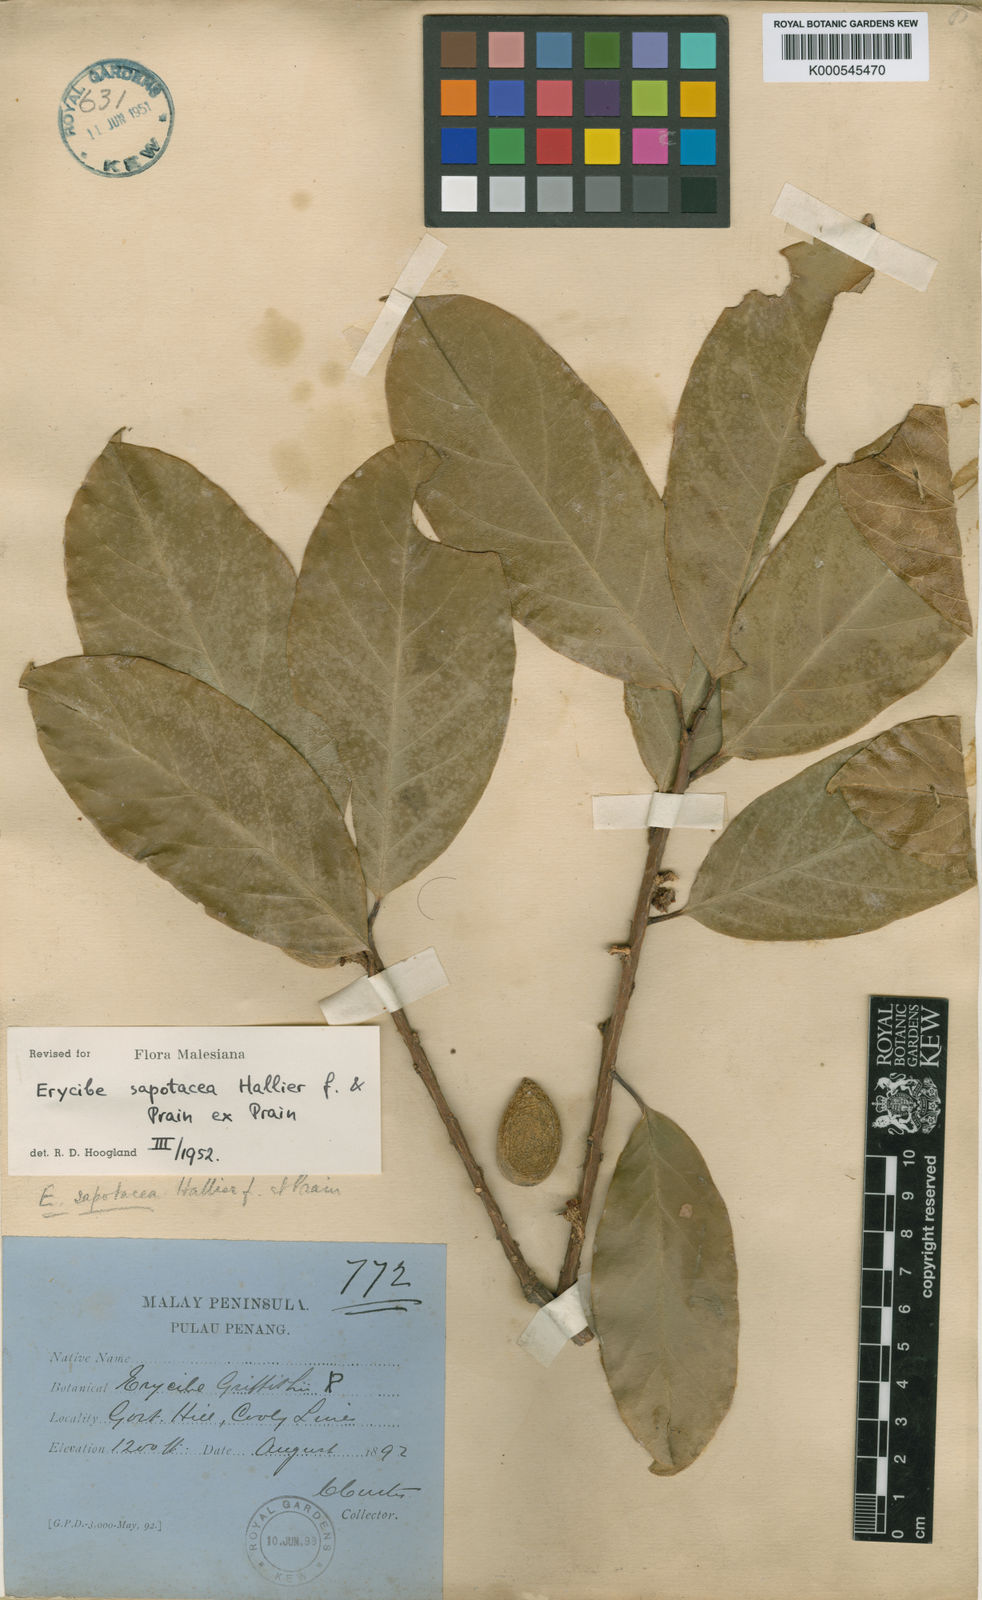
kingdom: Plantae
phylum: Tracheophyta
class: Magnoliopsida
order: Solanales
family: Convolvulaceae
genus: Erycibe
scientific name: Erycibe sapotacea
